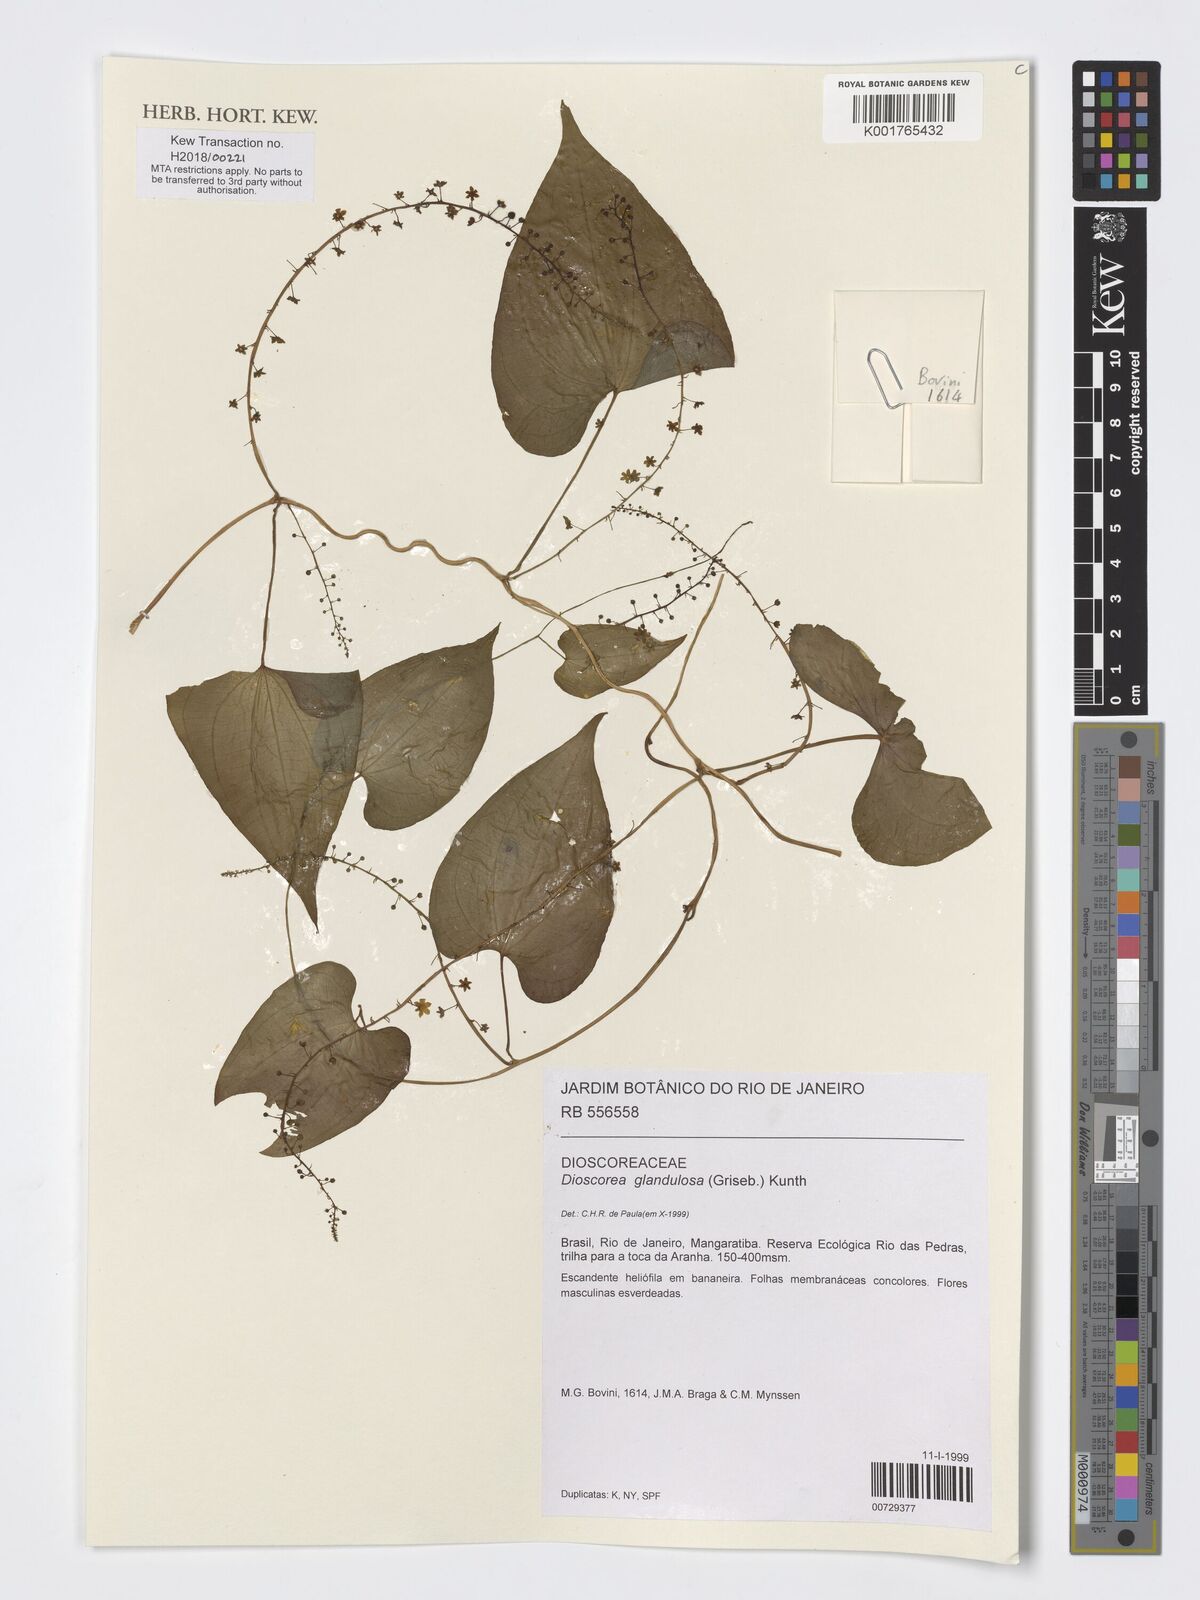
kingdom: Plantae
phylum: Tracheophyta
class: Liliopsida
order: Dioscoreales
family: Dioscoreaceae
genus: Dioscorea
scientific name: Dioscorea glandulosa
